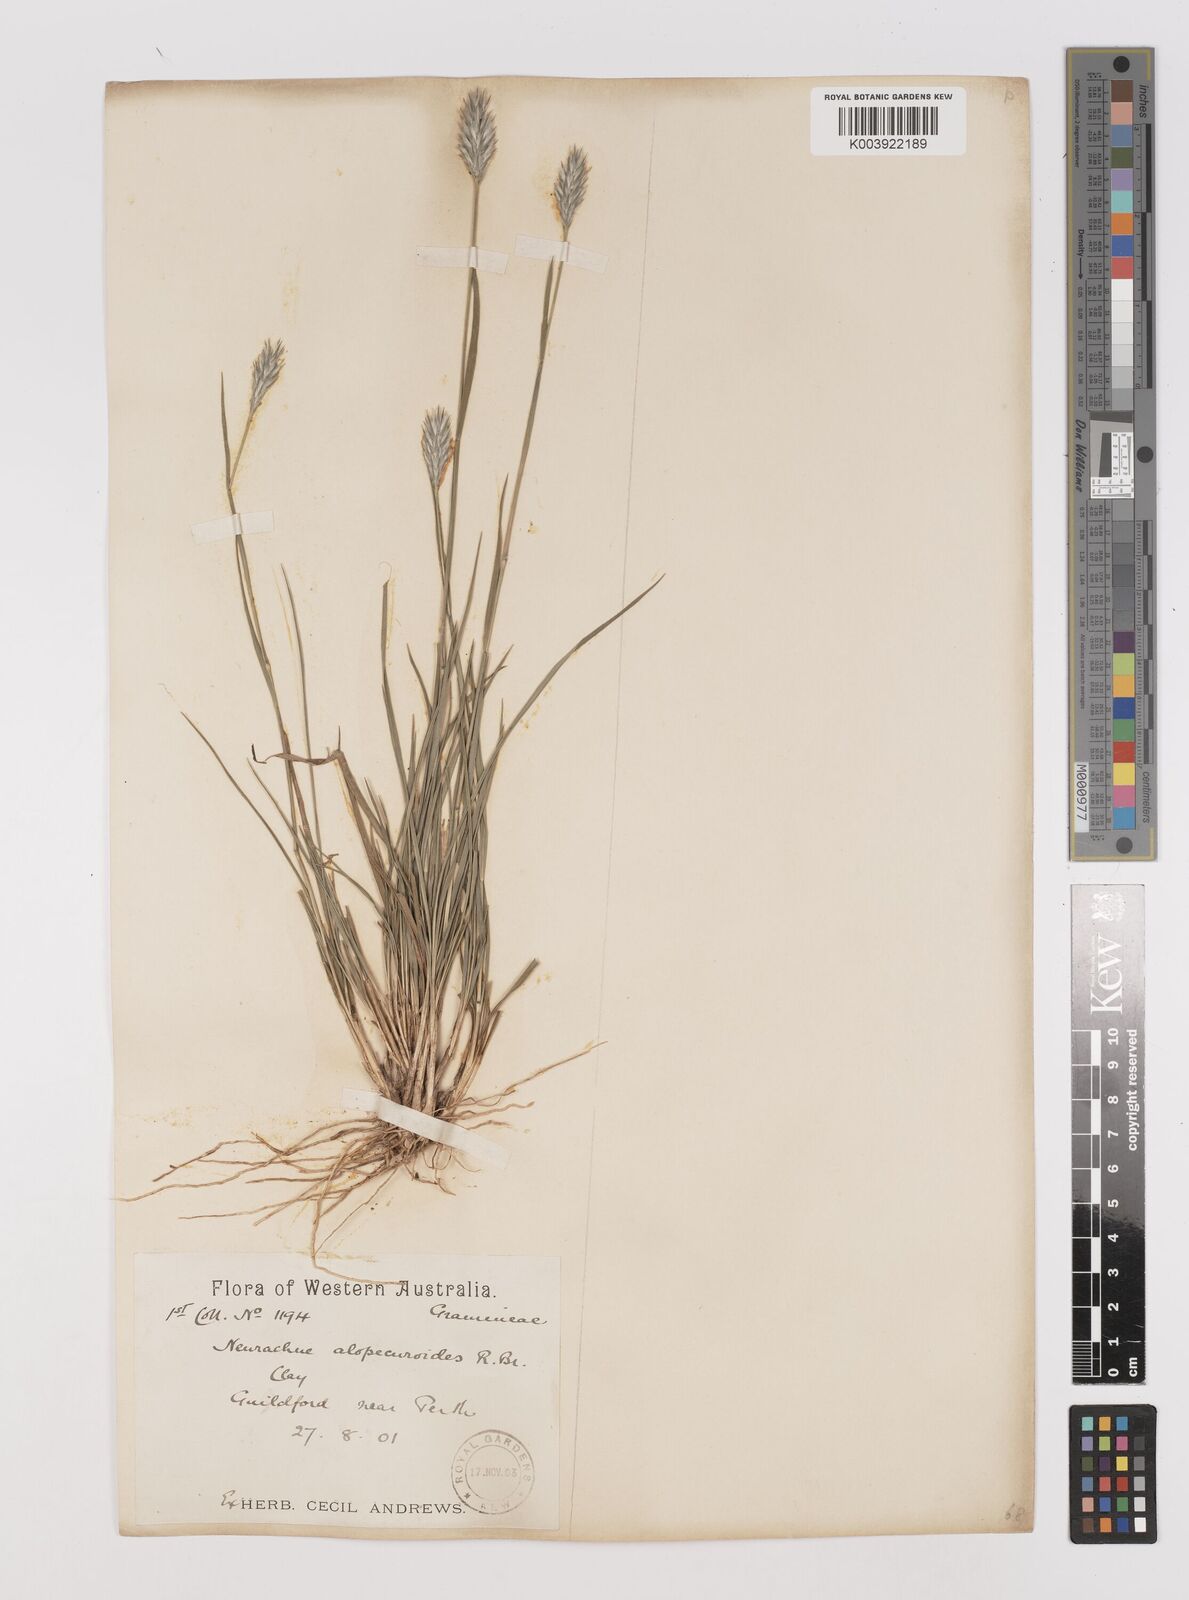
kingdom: Plantae
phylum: Tracheophyta
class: Liliopsida
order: Poales
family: Poaceae
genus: Neurachne
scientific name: Neurachne alopecuroidea
